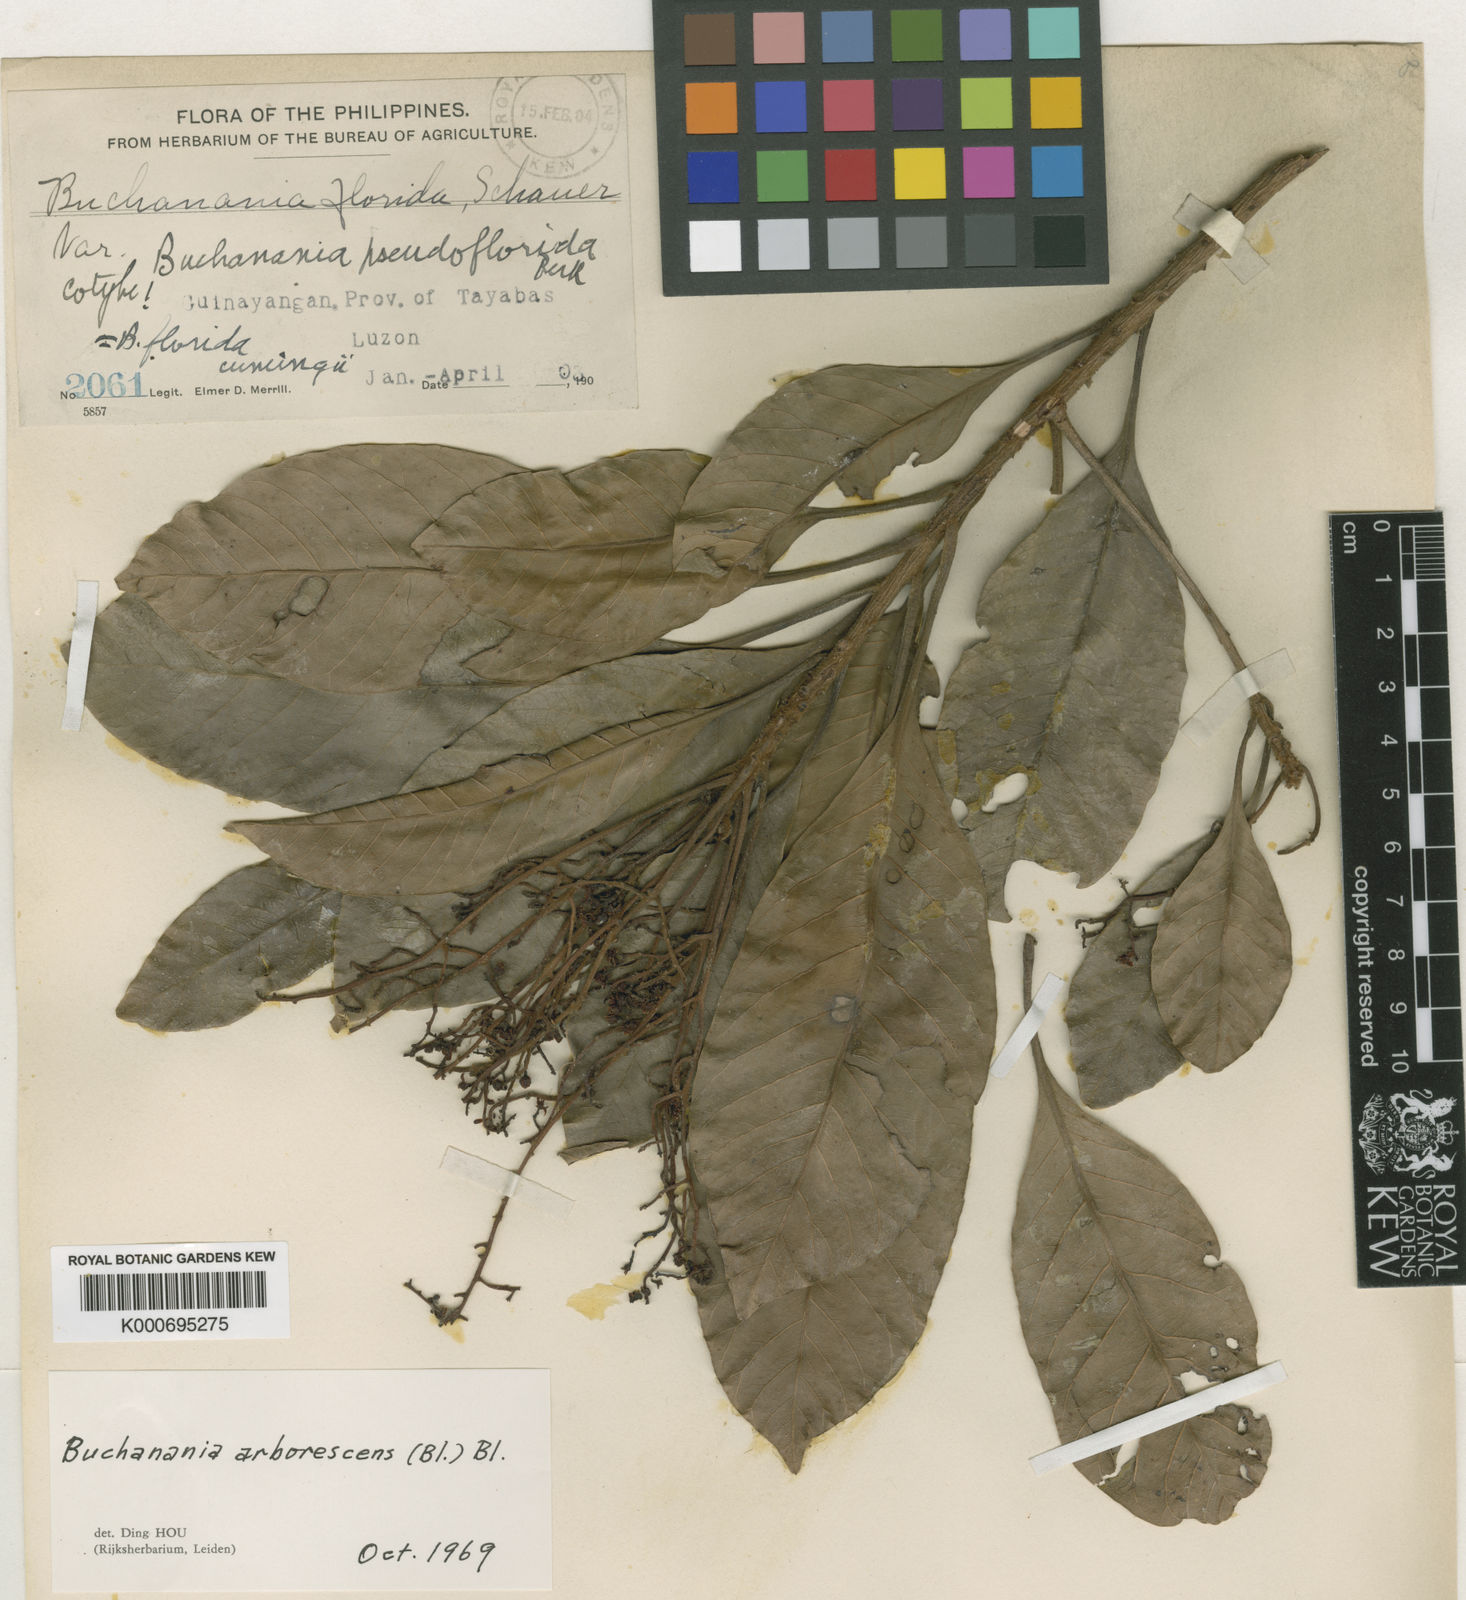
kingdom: Plantae
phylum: Tracheophyta
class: Magnoliopsida
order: Sapindales
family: Anacardiaceae
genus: Buchanania
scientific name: Buchanania arborescens
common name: Sparrow’s mango
